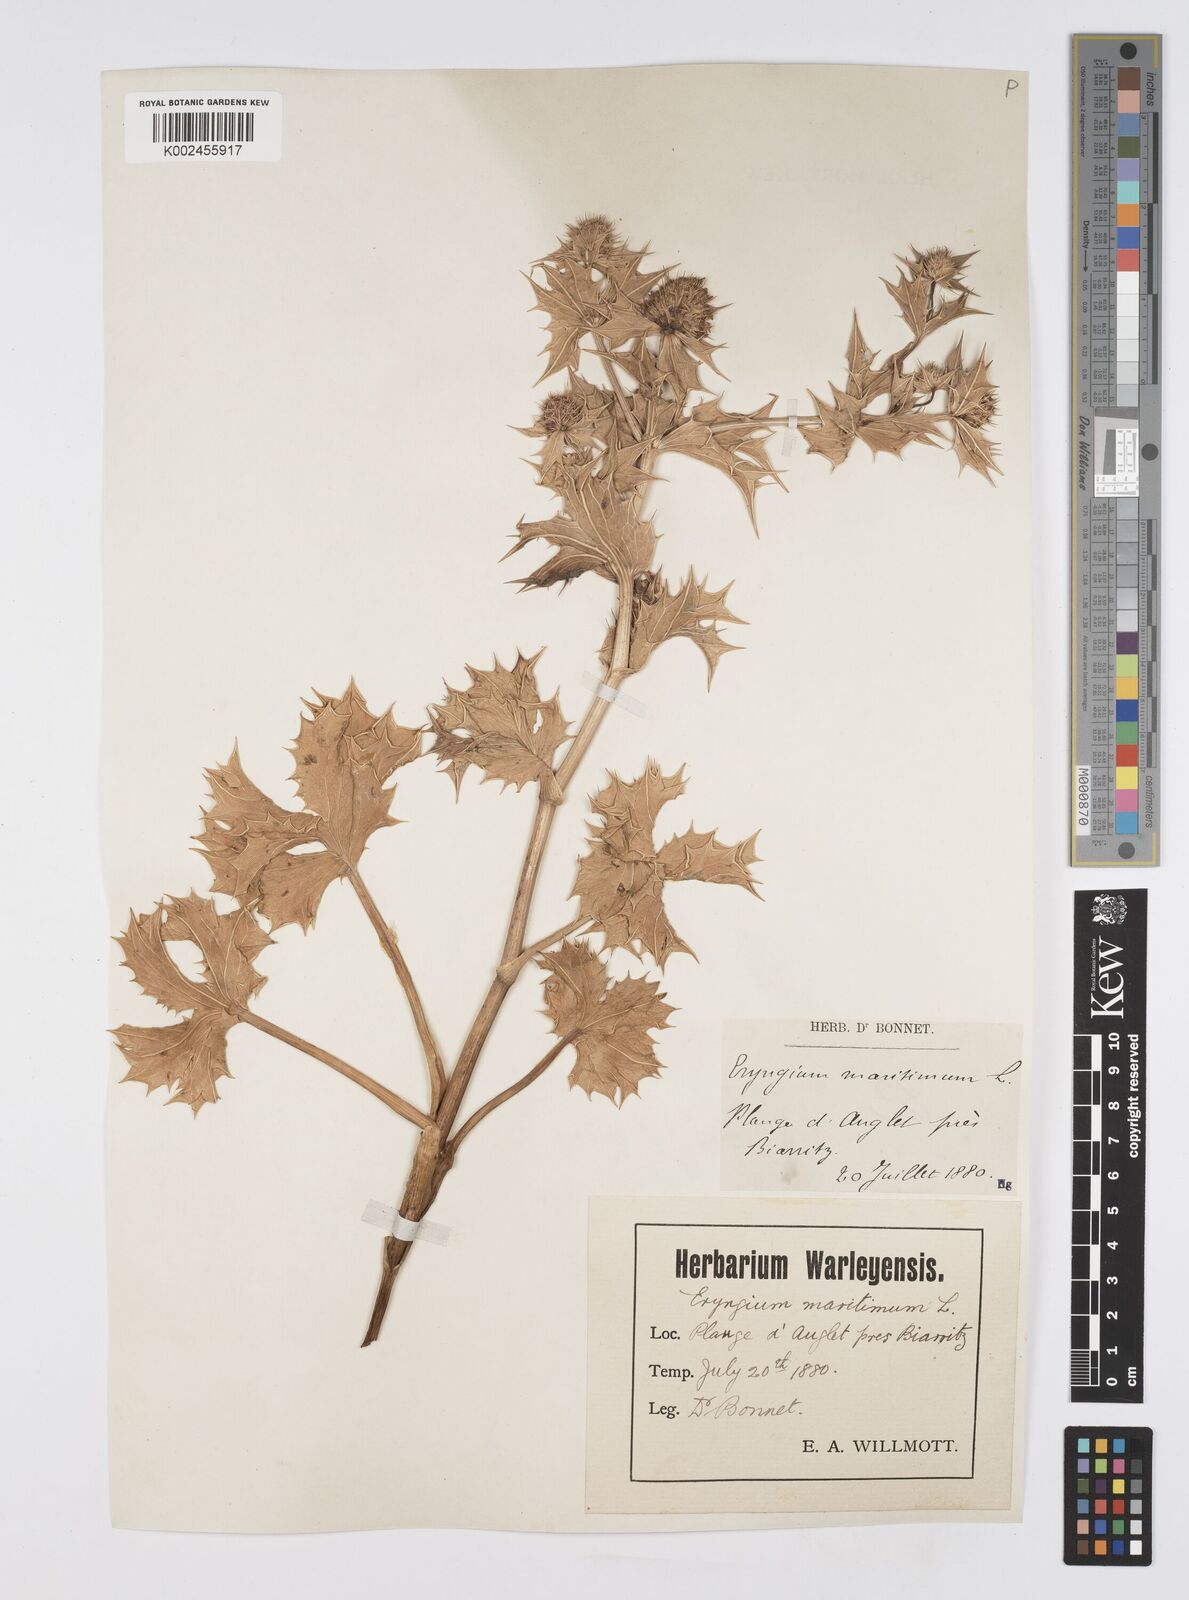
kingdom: Plantae
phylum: Tracheophyta
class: Magnoliopsida
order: Apiales
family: Apiaceae
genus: Eryngium
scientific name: Eryngium maritimum
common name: Sea-holly
